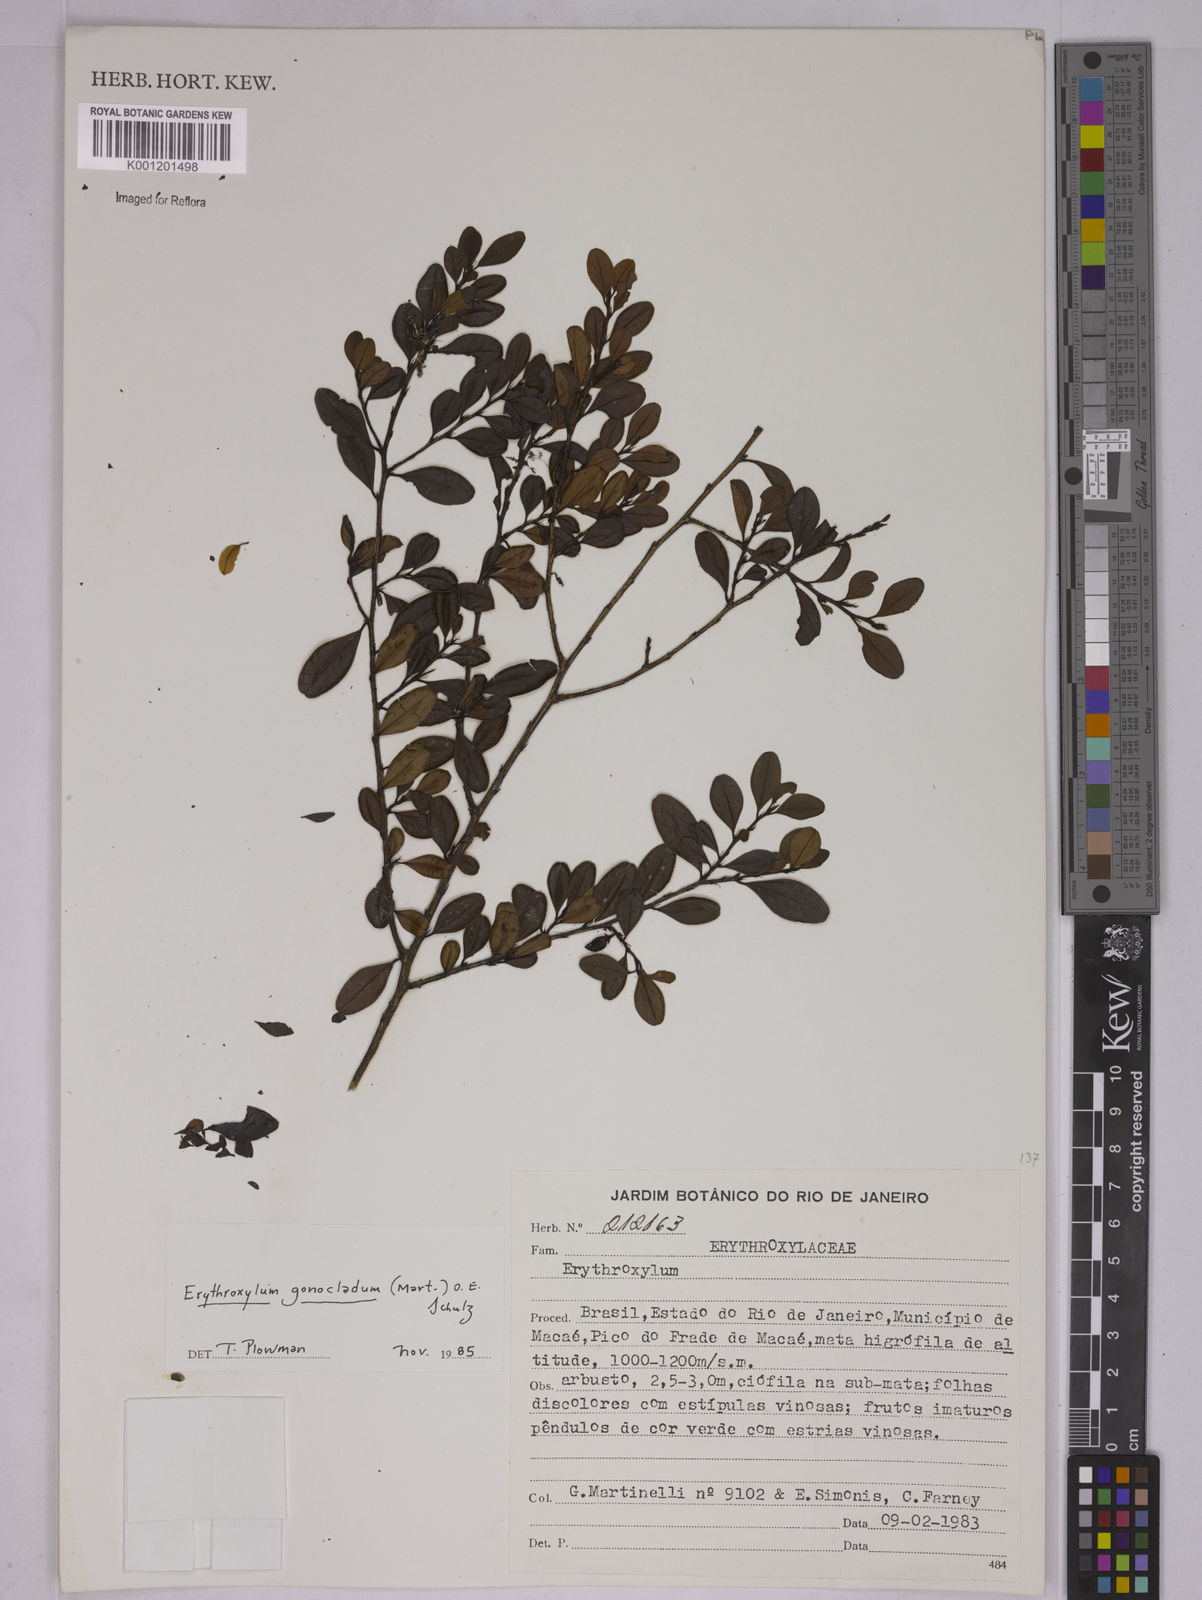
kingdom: Plantae
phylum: Tracheophyta
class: Magnoliopsida
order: Malpighiales
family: Erythroxylaceae
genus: Erythroxylum
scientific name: Erythroxylum
